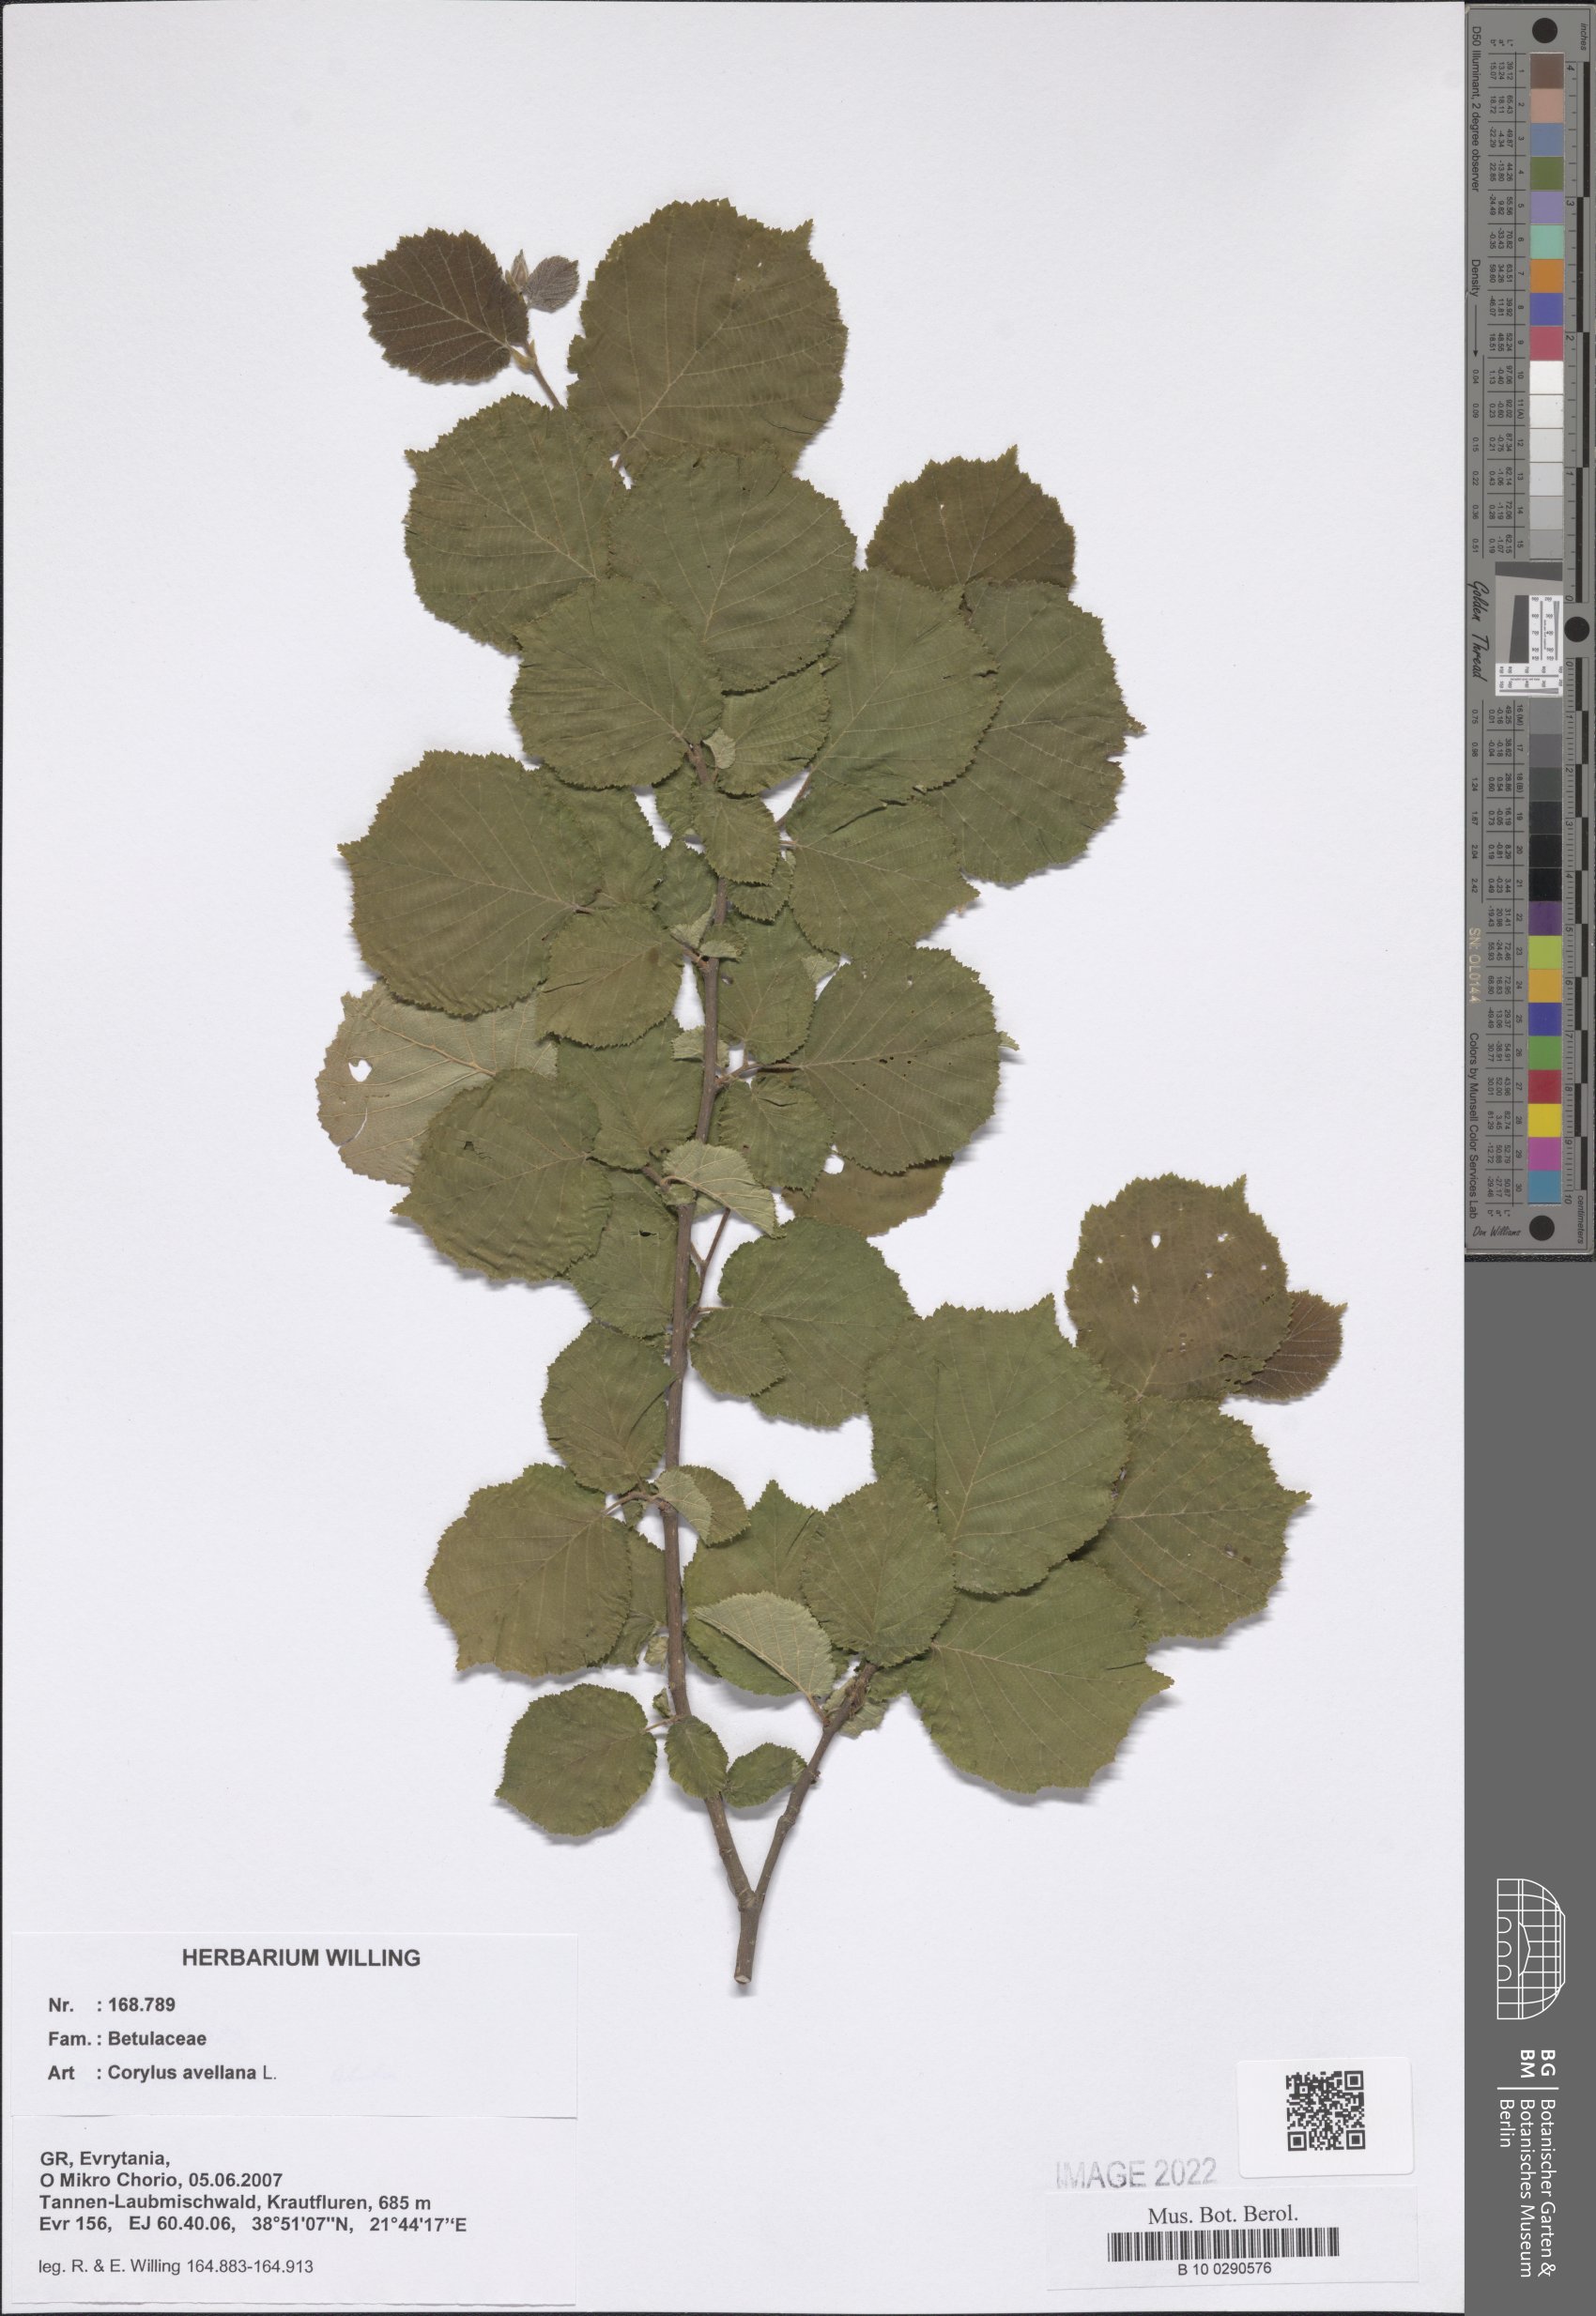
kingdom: Plantae
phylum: Tracheophyta
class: Magnoliopsida
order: Fagales
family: Betulaceae
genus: Corylus
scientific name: Corylus avellana
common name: European hazel
